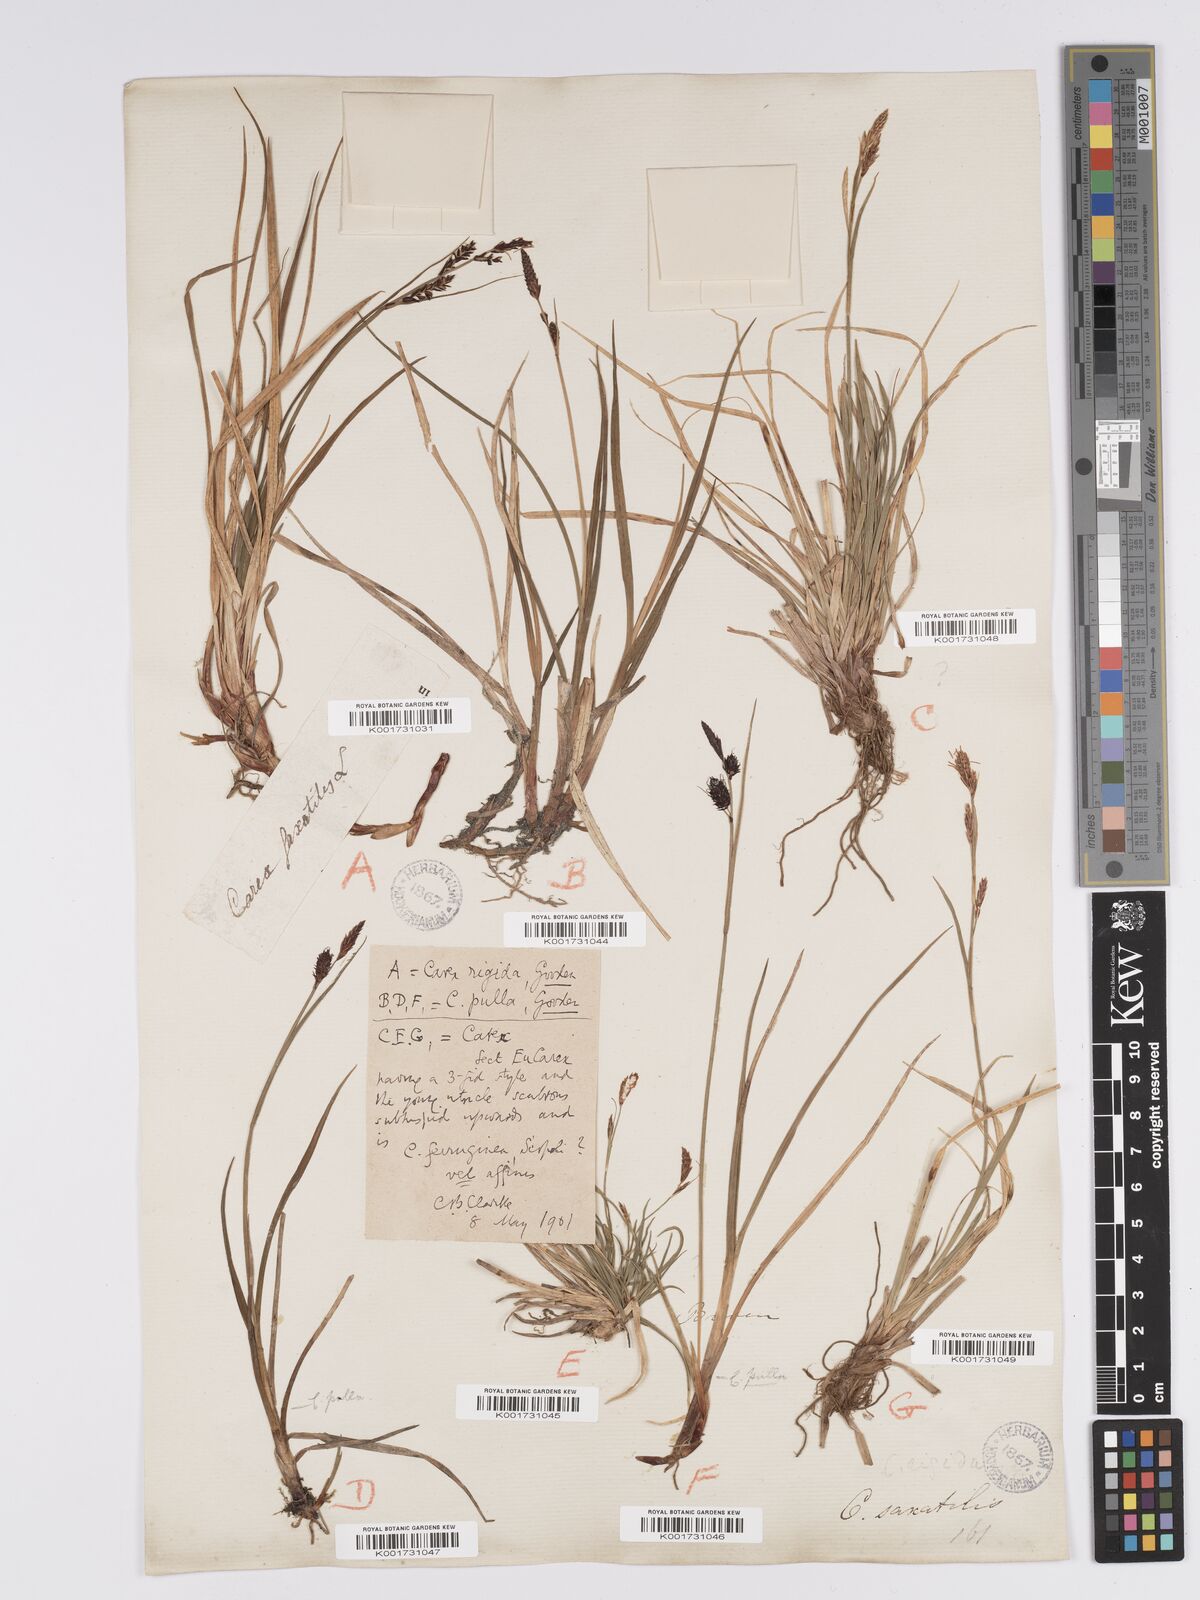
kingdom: Plantae
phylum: Tracheophyta
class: Liliopsida
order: Poales
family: Cyperaceae
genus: Carex
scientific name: Carex bigelowii
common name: Stiff sedge
